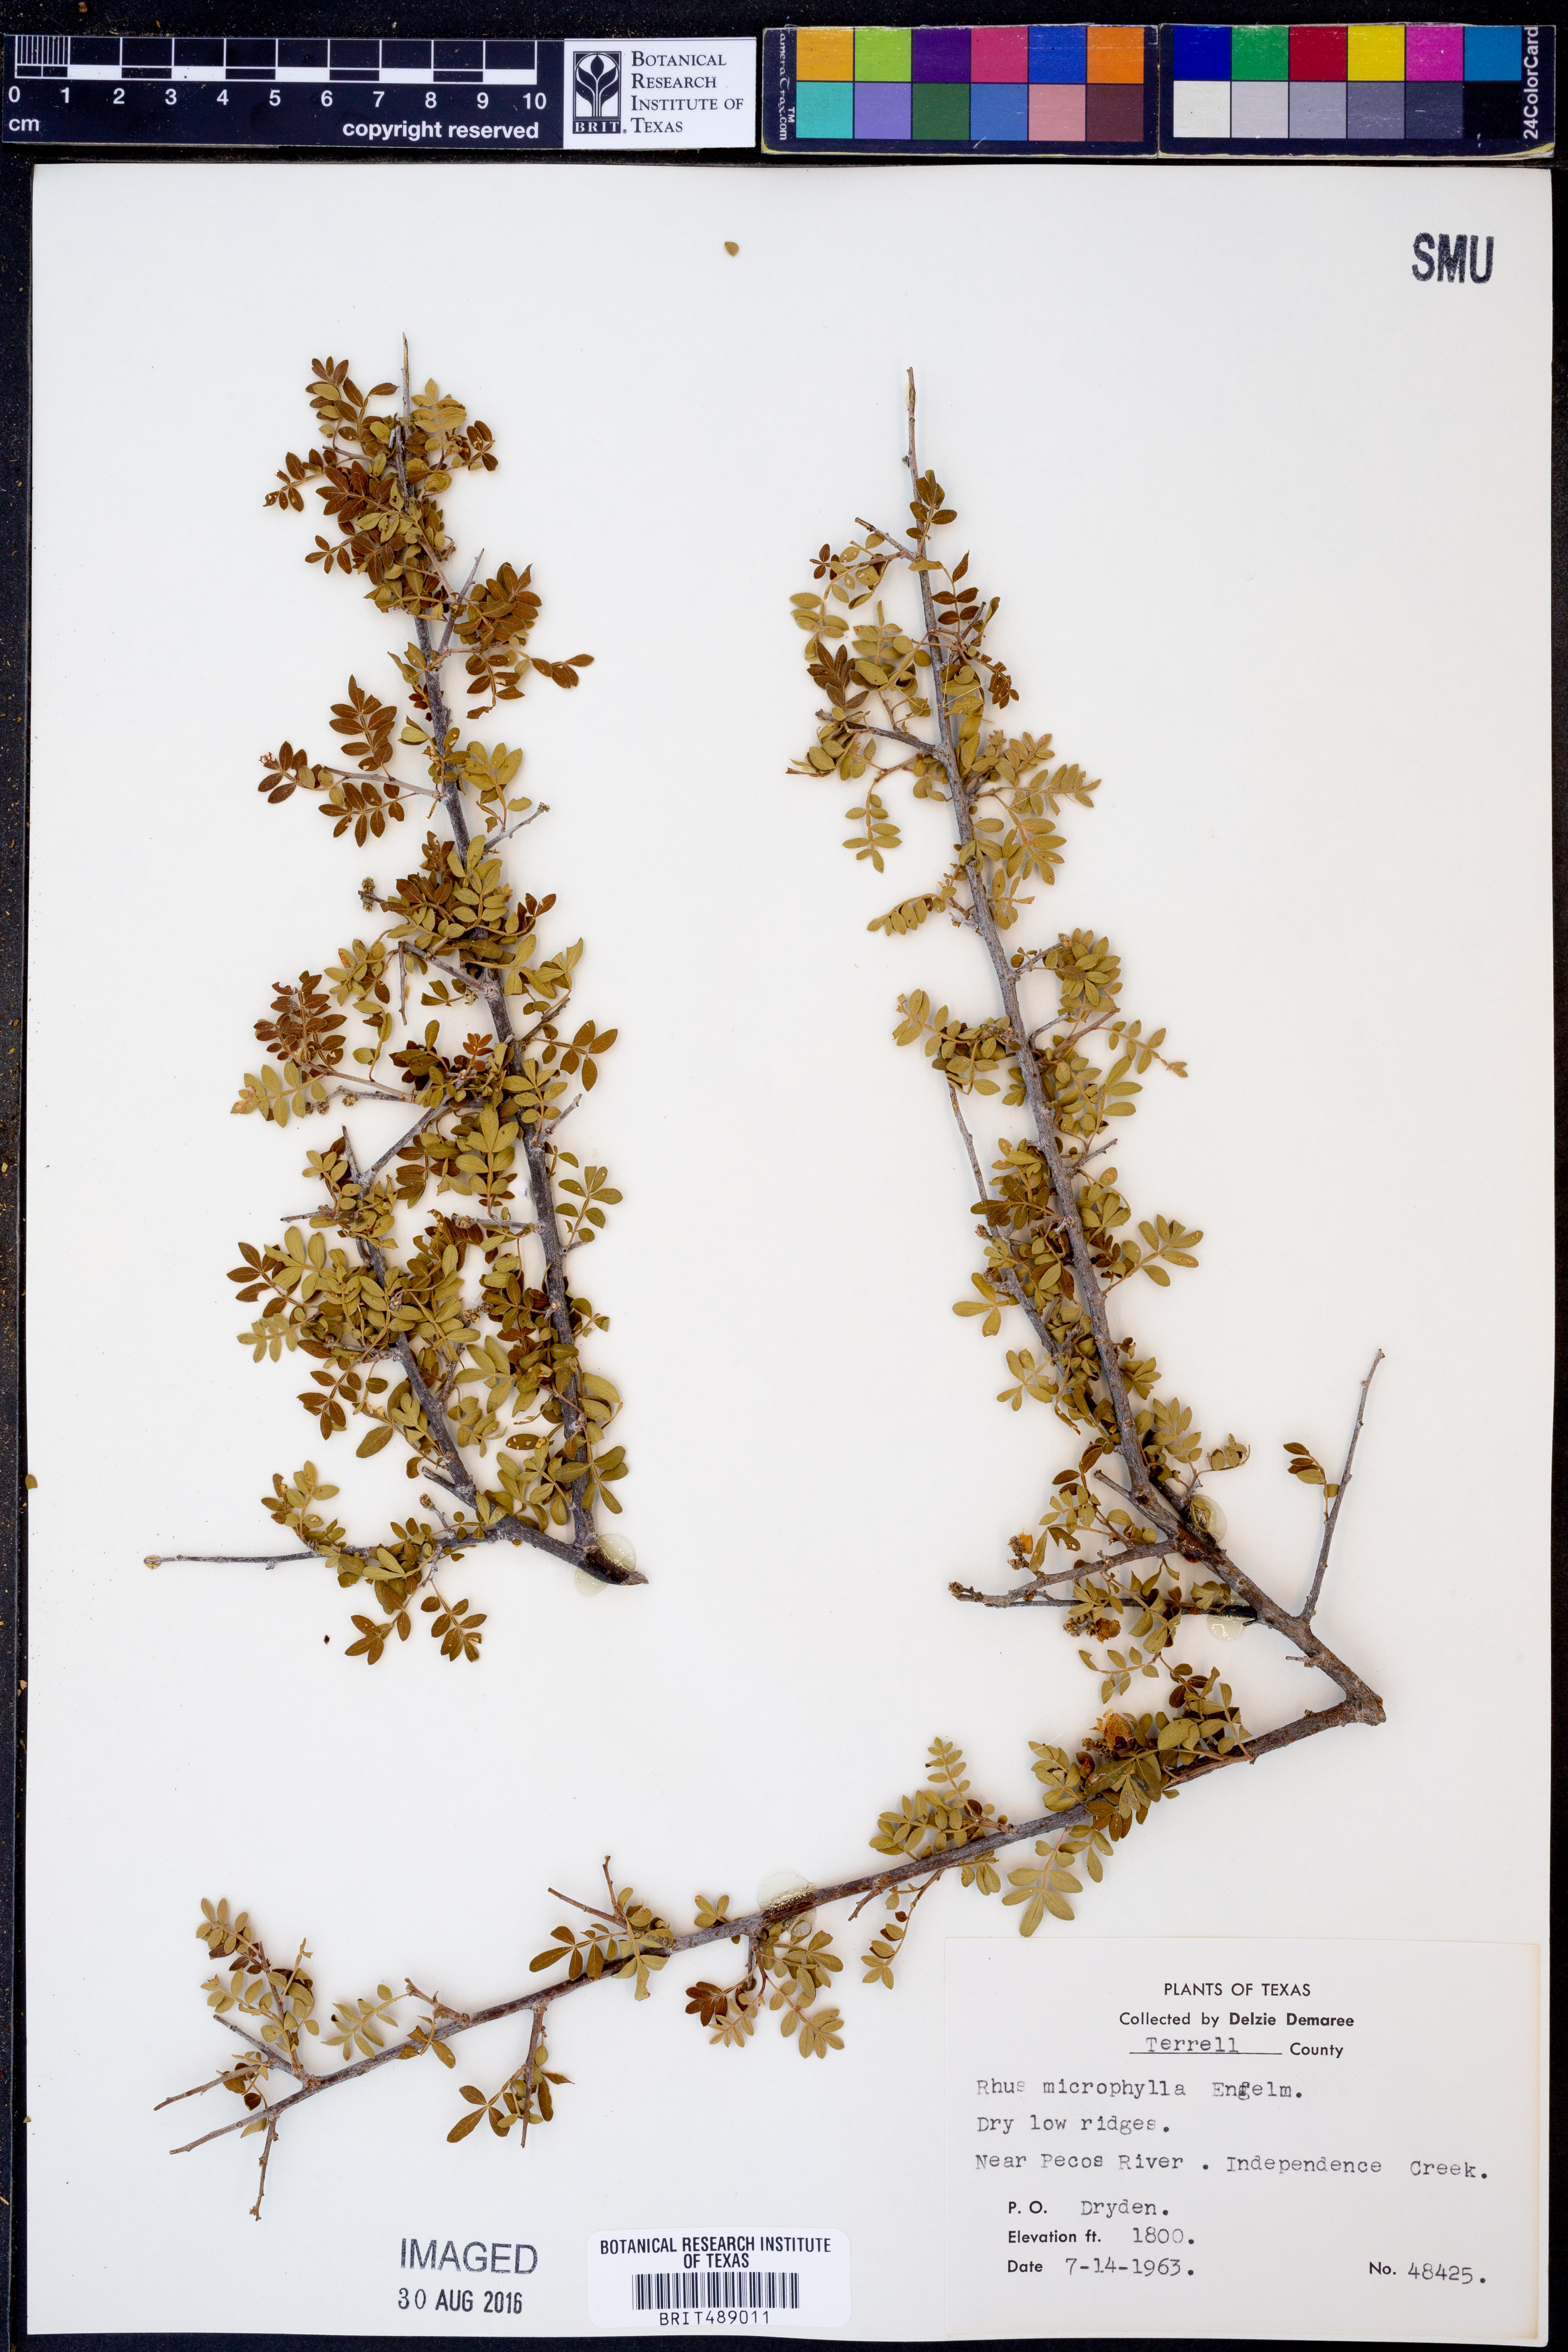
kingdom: Plantae
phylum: Tracheophyta
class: Magnoliopsida
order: Sapindales
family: Anacardiaceae
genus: Rhus
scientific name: Rhus microphylla
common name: Desert sumac
